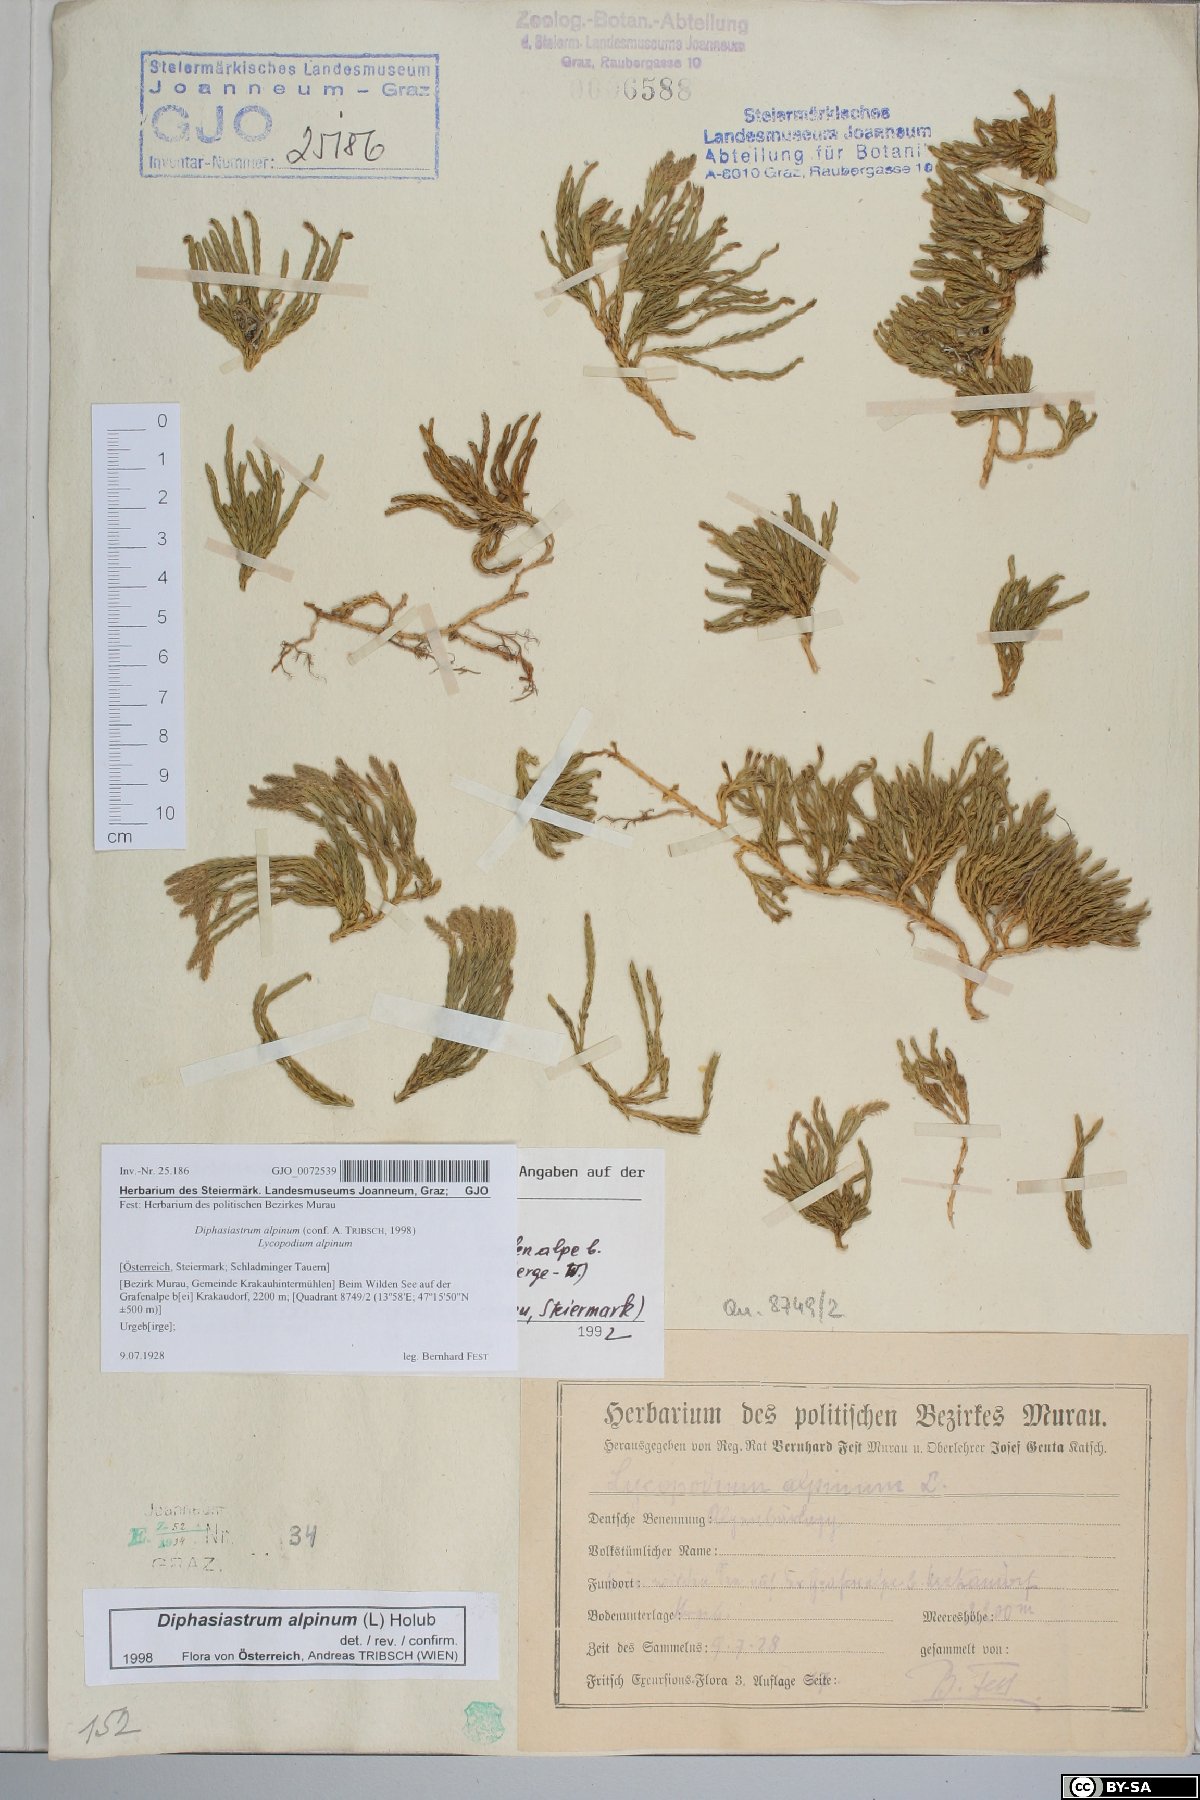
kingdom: Plantae
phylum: Tracheophyta
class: Lycopodiopsida
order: Lycopodiales
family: Lycopodiaceae
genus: Diphasiastrum
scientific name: Diphasiastrum alpinum
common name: Alpine clubmoss
